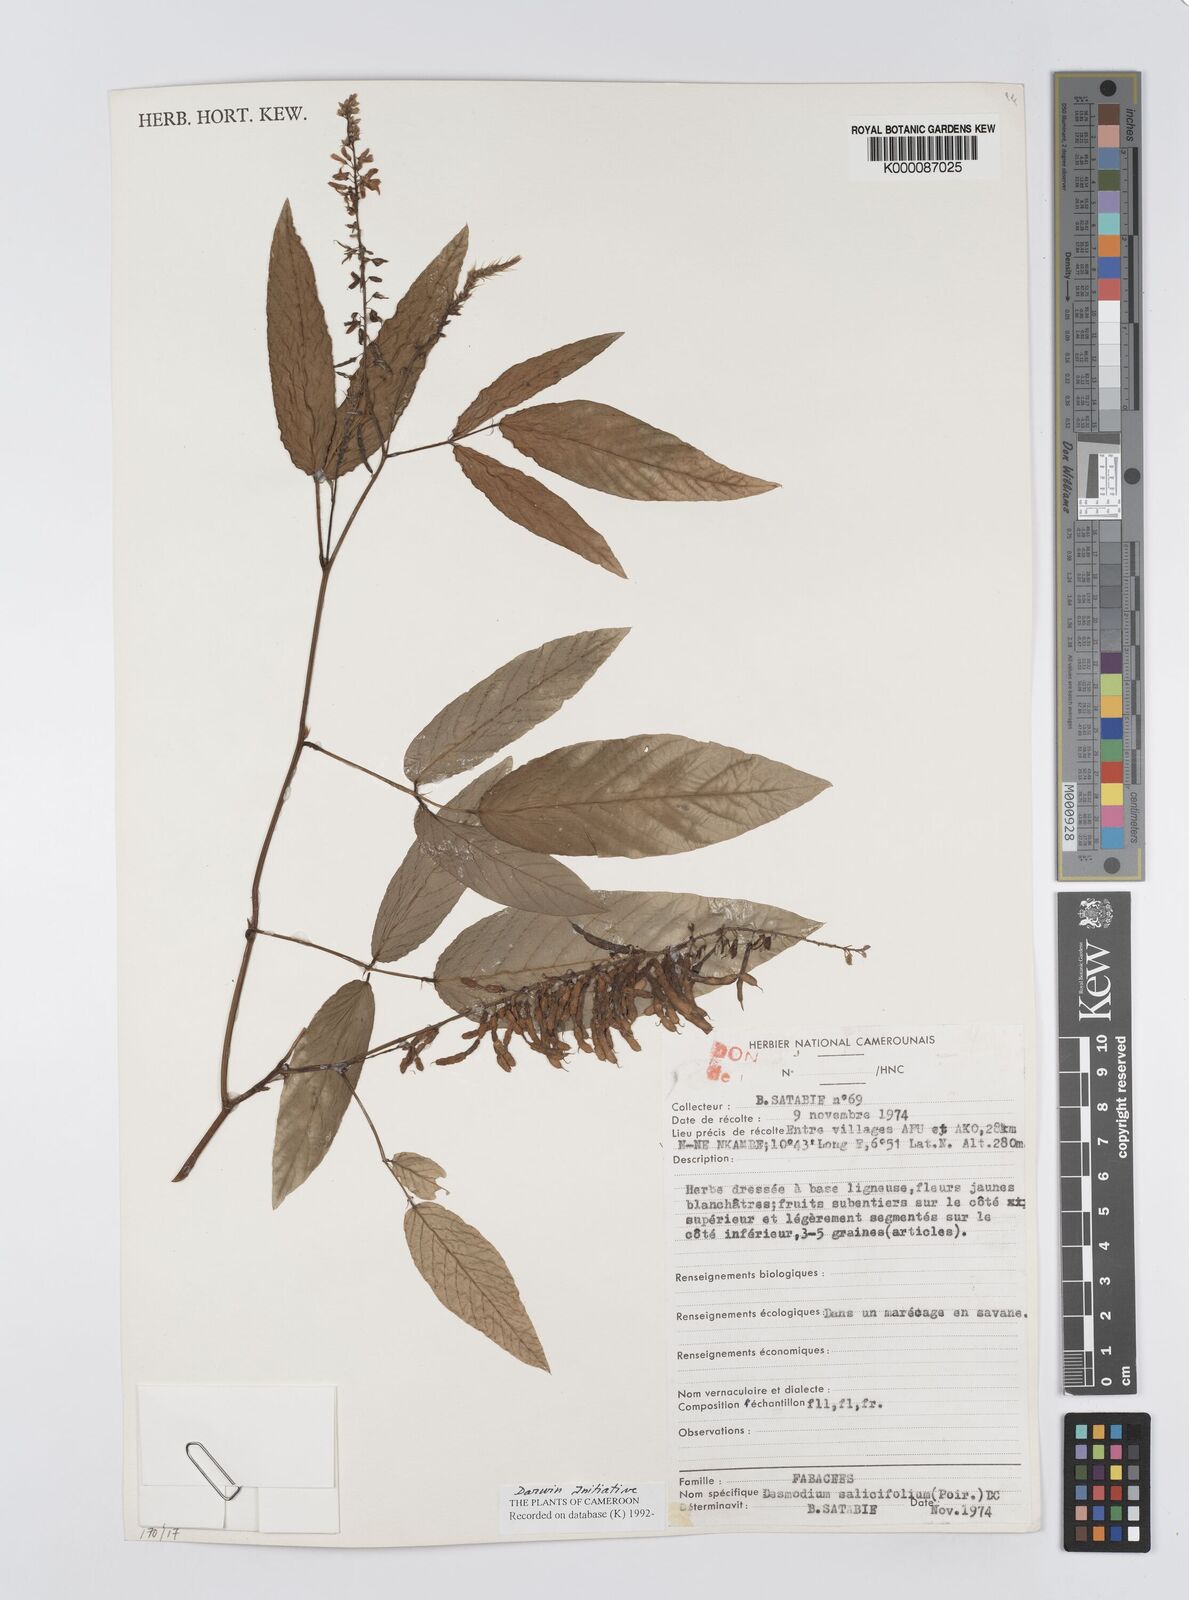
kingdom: Plantae
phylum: Tracheophyta
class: Magnoliopsida
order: Fabales
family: Fabaceae
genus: Pleurolobus
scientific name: Pleurolobus salicifolius
